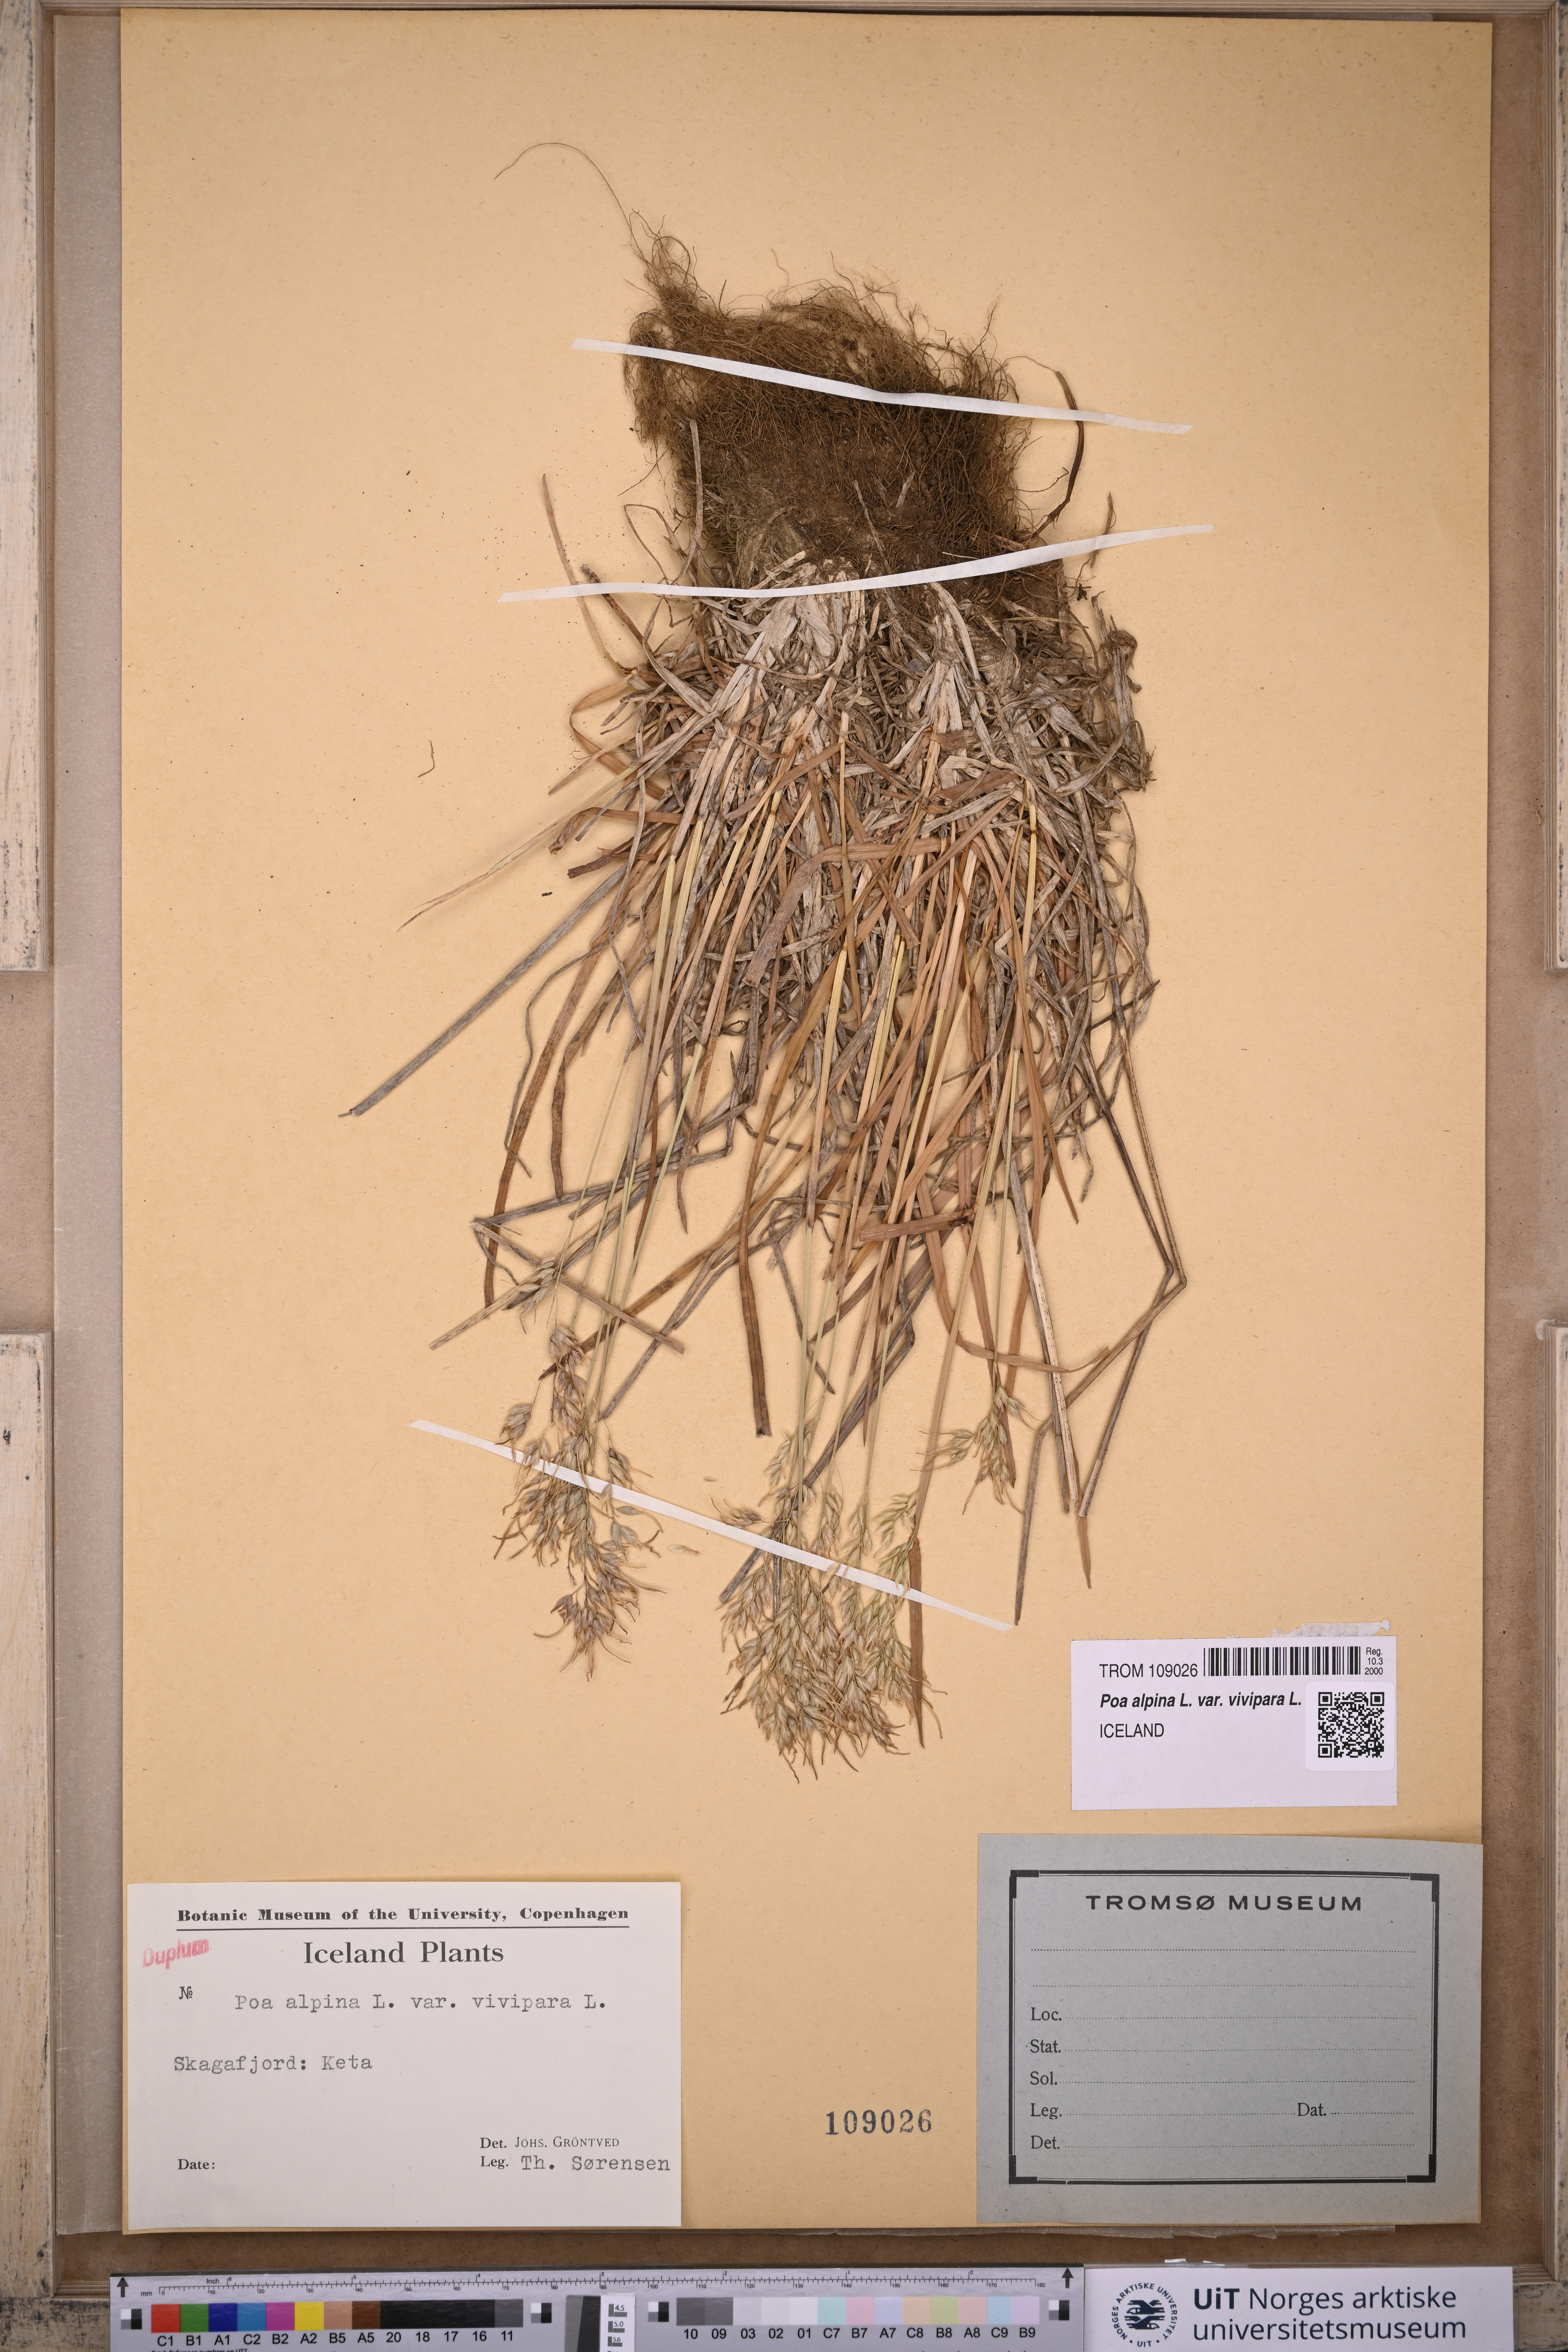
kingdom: Plantae
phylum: Tracheophyta
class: Liliopsida
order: Poales
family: Poaceae
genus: Poa
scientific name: Poa alpina
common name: Alpine bluegrass
